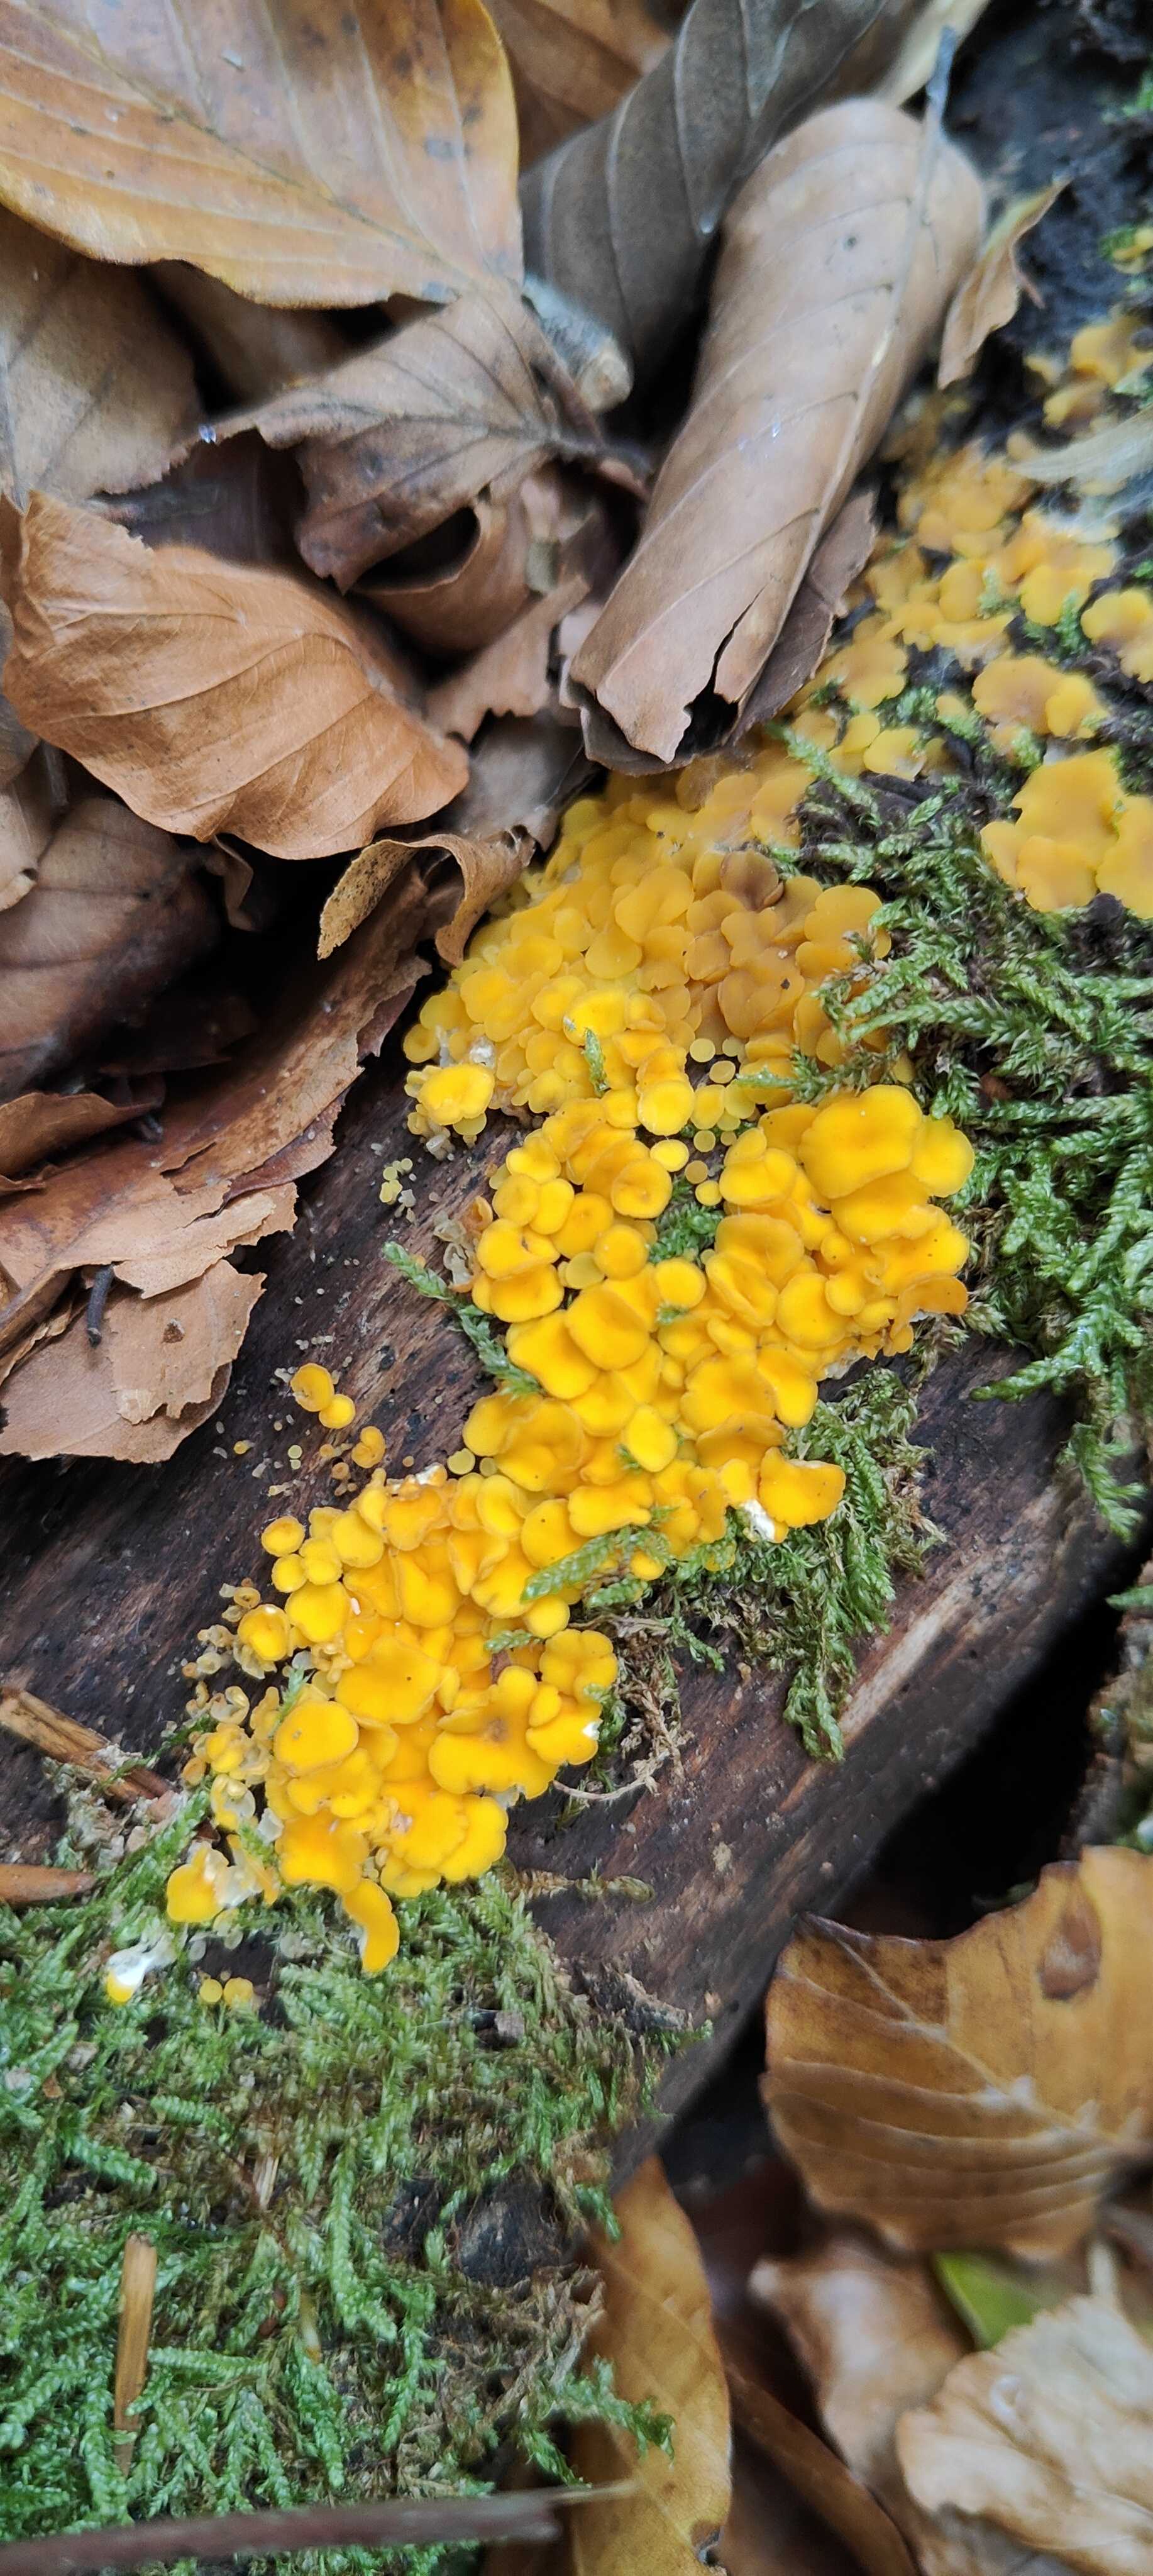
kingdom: Fungi
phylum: Ascomycota
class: Leotiomycetes
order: Helotiales
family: Pezizellaceae
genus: Calycina
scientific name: Calycina citrina
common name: almindelig gulskive
